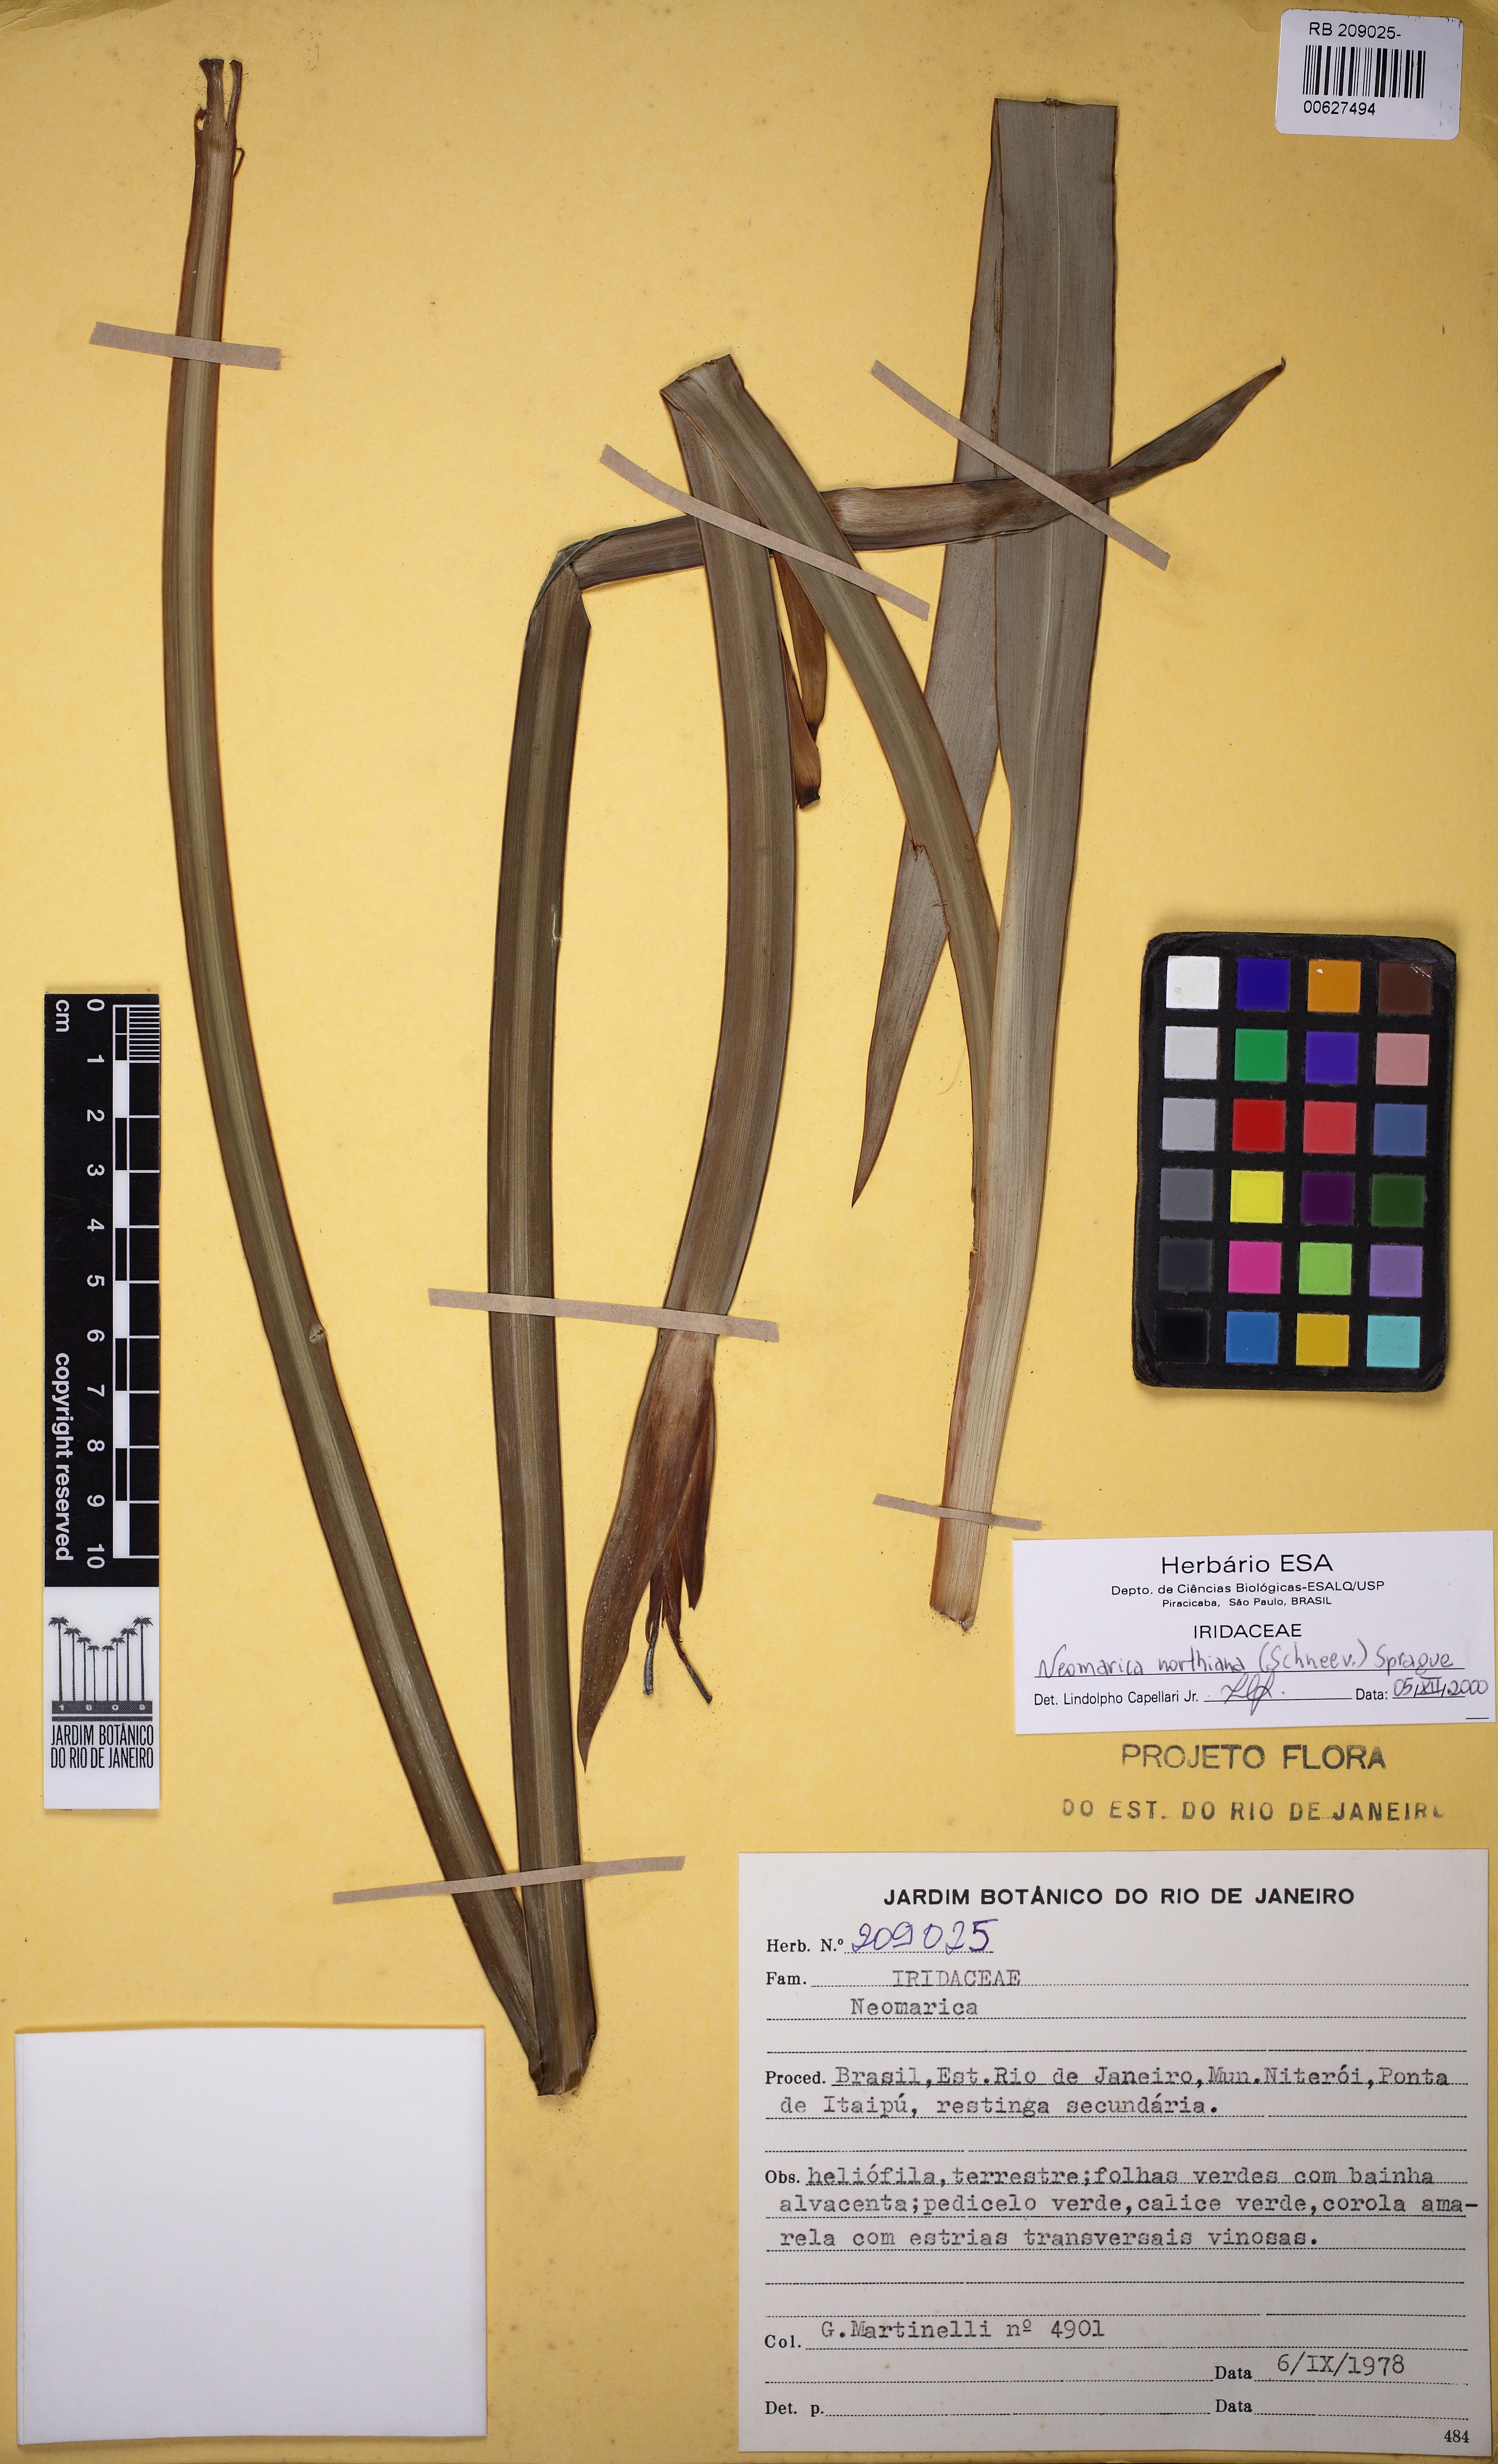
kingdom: Plantae
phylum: Tracheophyta
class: Liliopsida
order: Asparagales
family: Iridaceae
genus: Trimezia
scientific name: Trimezia northiana
